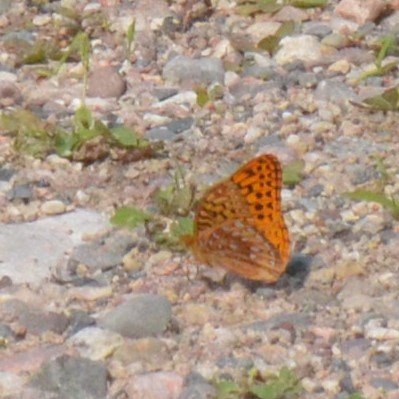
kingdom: Animalia
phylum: Arthropoda
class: Insecta
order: Lepidoptera
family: Nymphalidae
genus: Speyeria
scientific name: Speyeria cybele
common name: Great Spangled Fritillary
